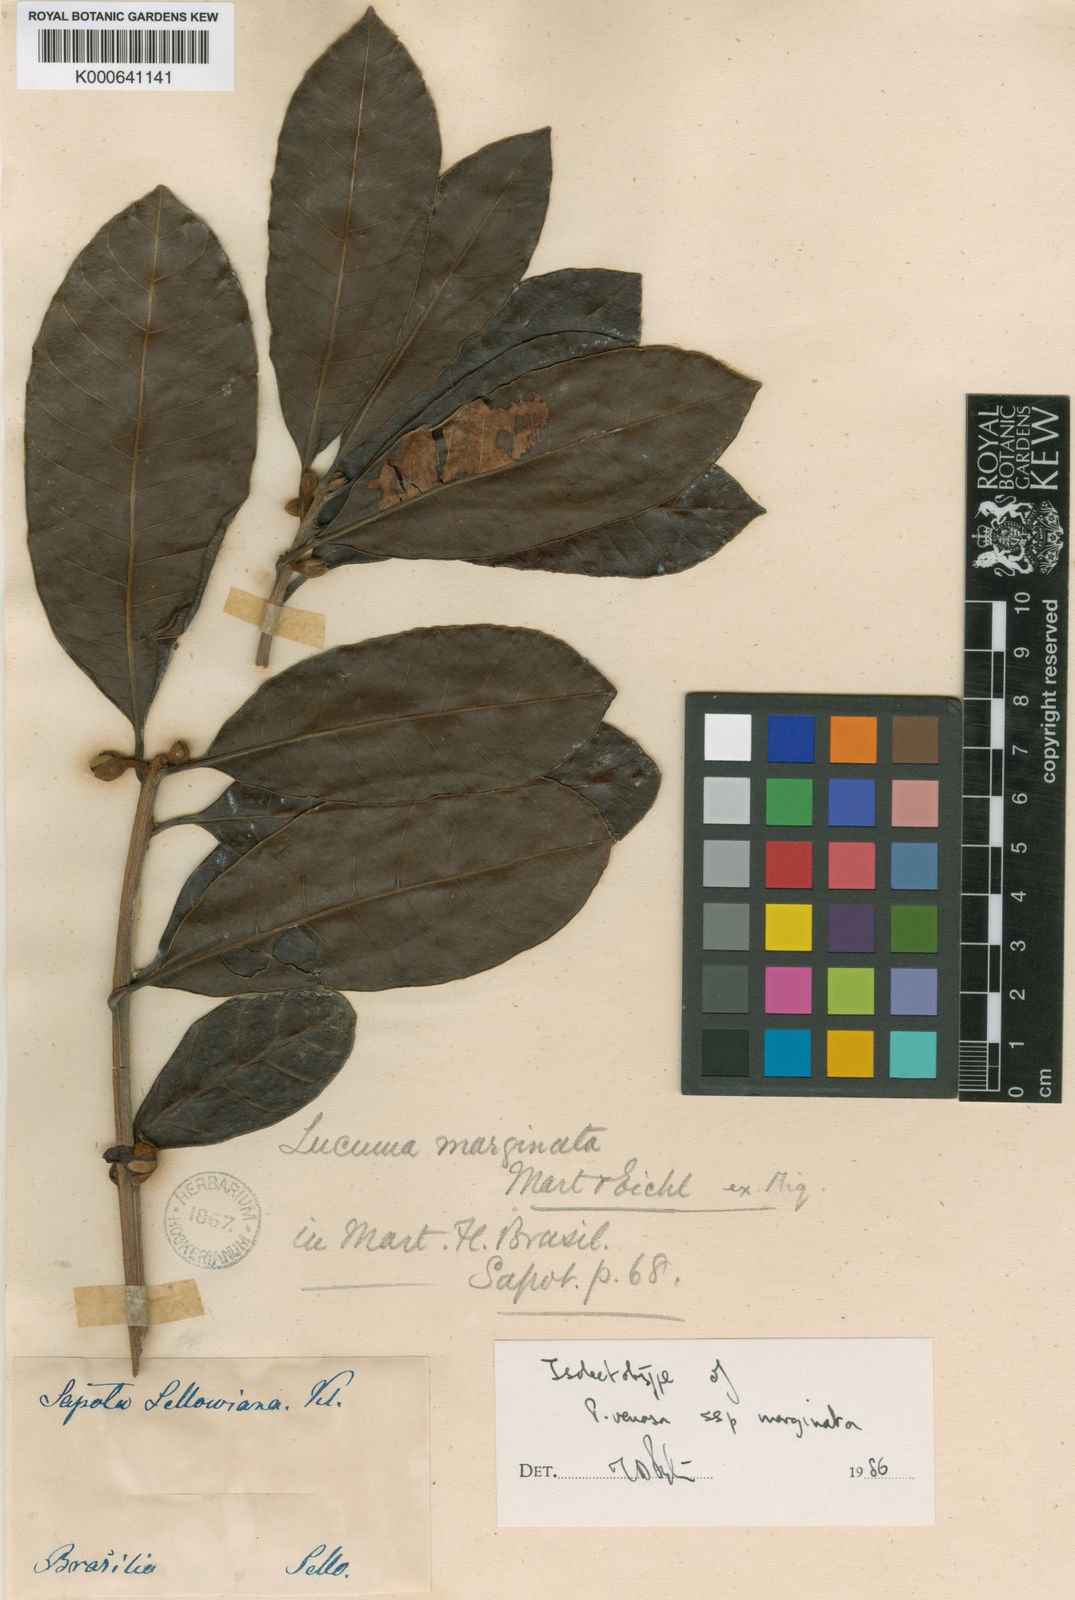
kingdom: Plantae
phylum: Tracheophyta
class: Magnoliopsida
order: Ericales
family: Sapotaceae
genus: Pouteria
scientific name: Pouteria venosa
